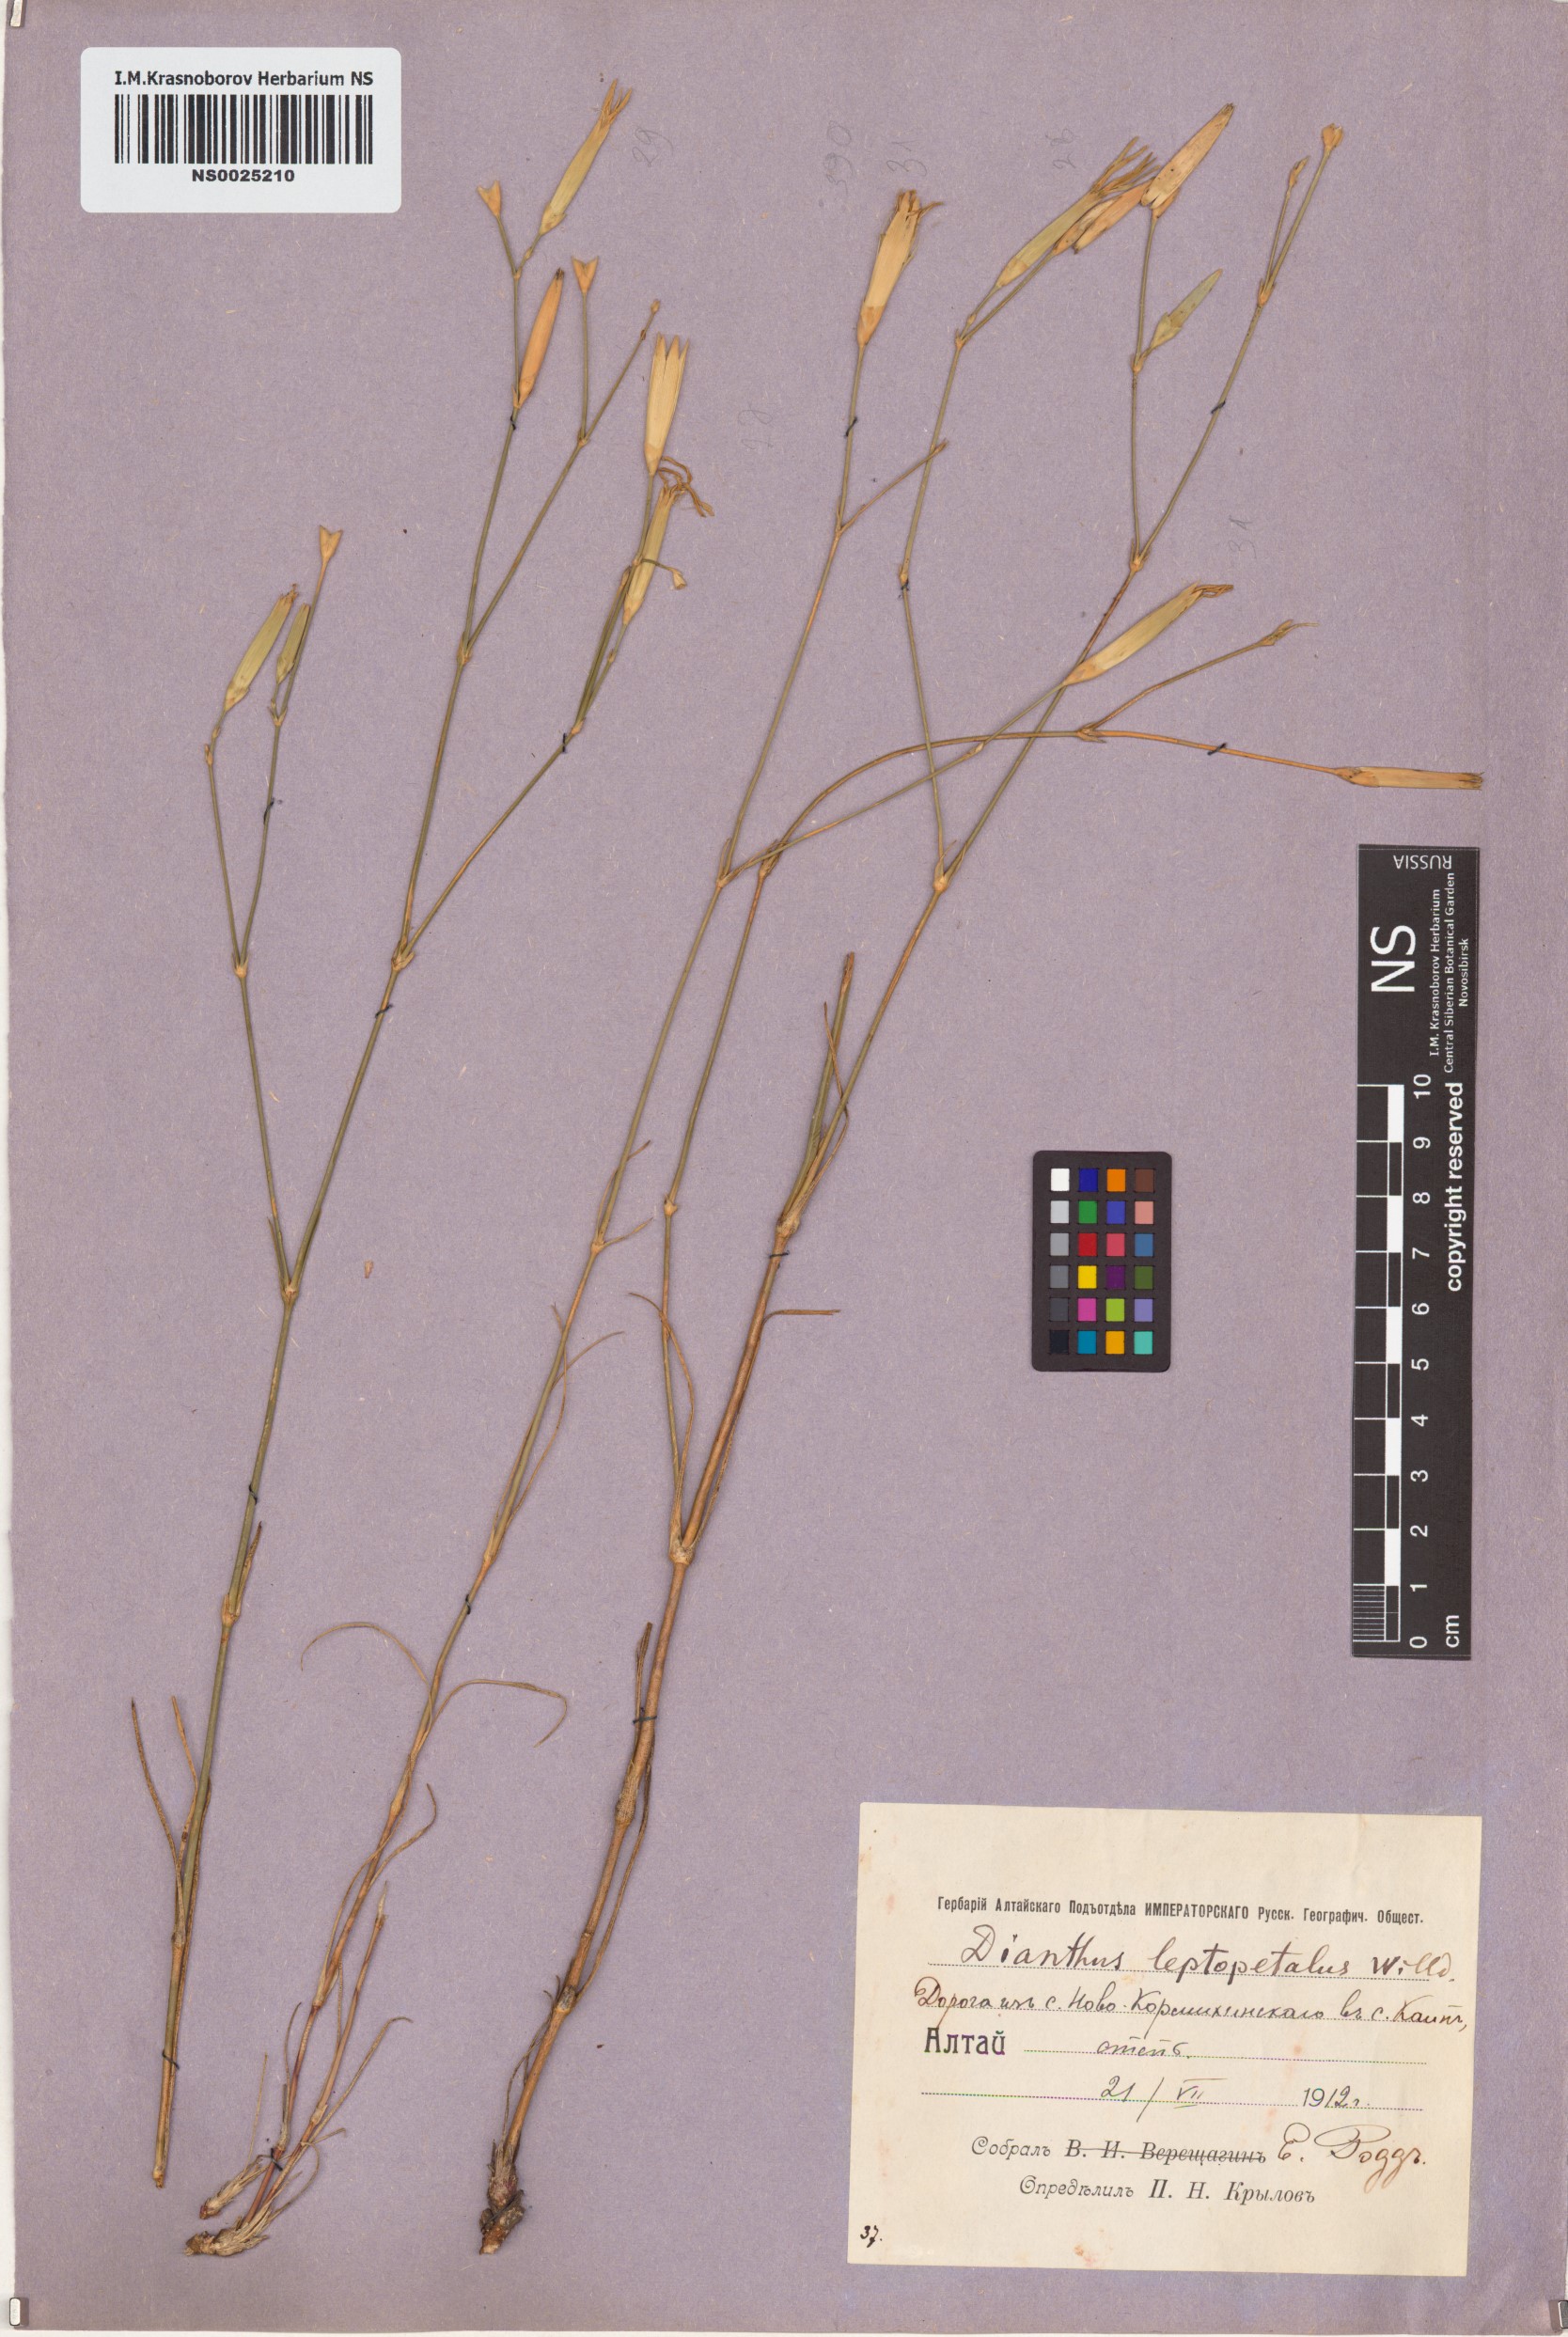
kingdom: Plantae
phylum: Tracheophyta
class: Magnoliopsida
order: Caryophyllales
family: Caryophyllaceae
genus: Dianthus
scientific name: Dianthus leptopetalus
